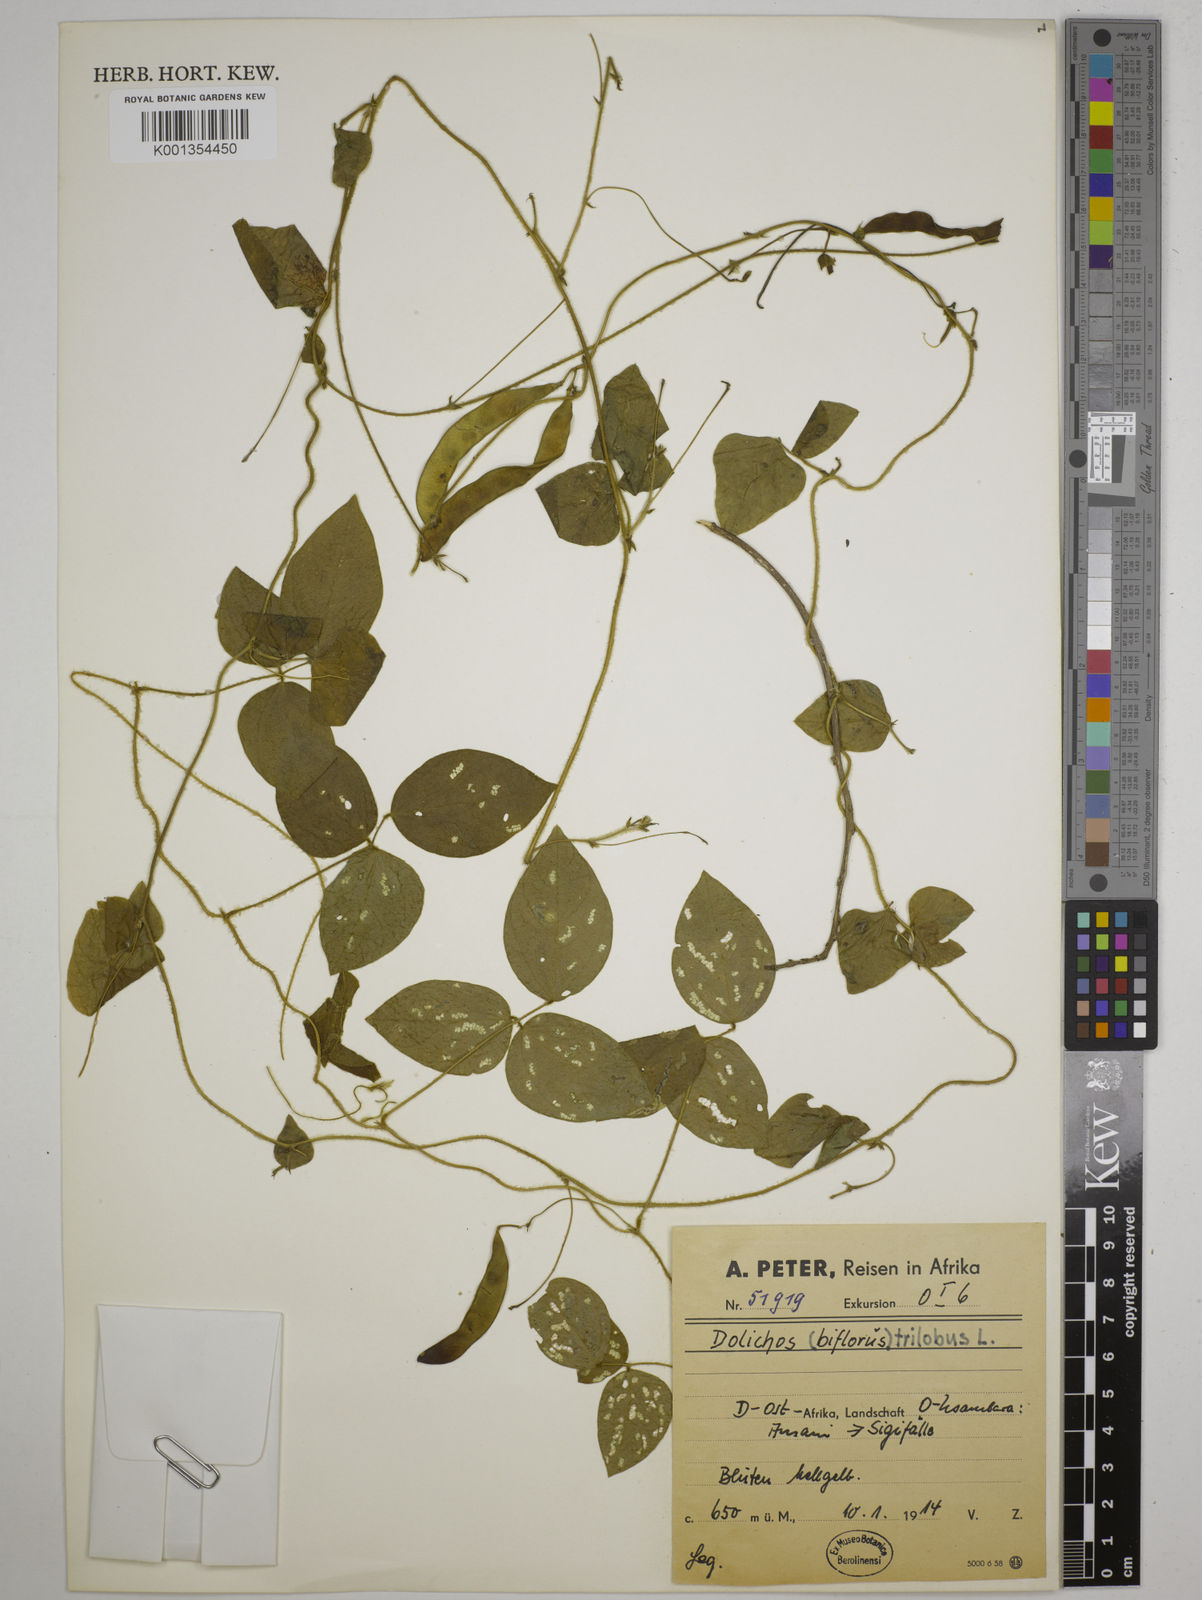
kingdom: Plantae
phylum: Tracheophyta
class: Magnoliopsida
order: Fabales
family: Fabaceae
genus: Dolichos
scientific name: Dolichos
